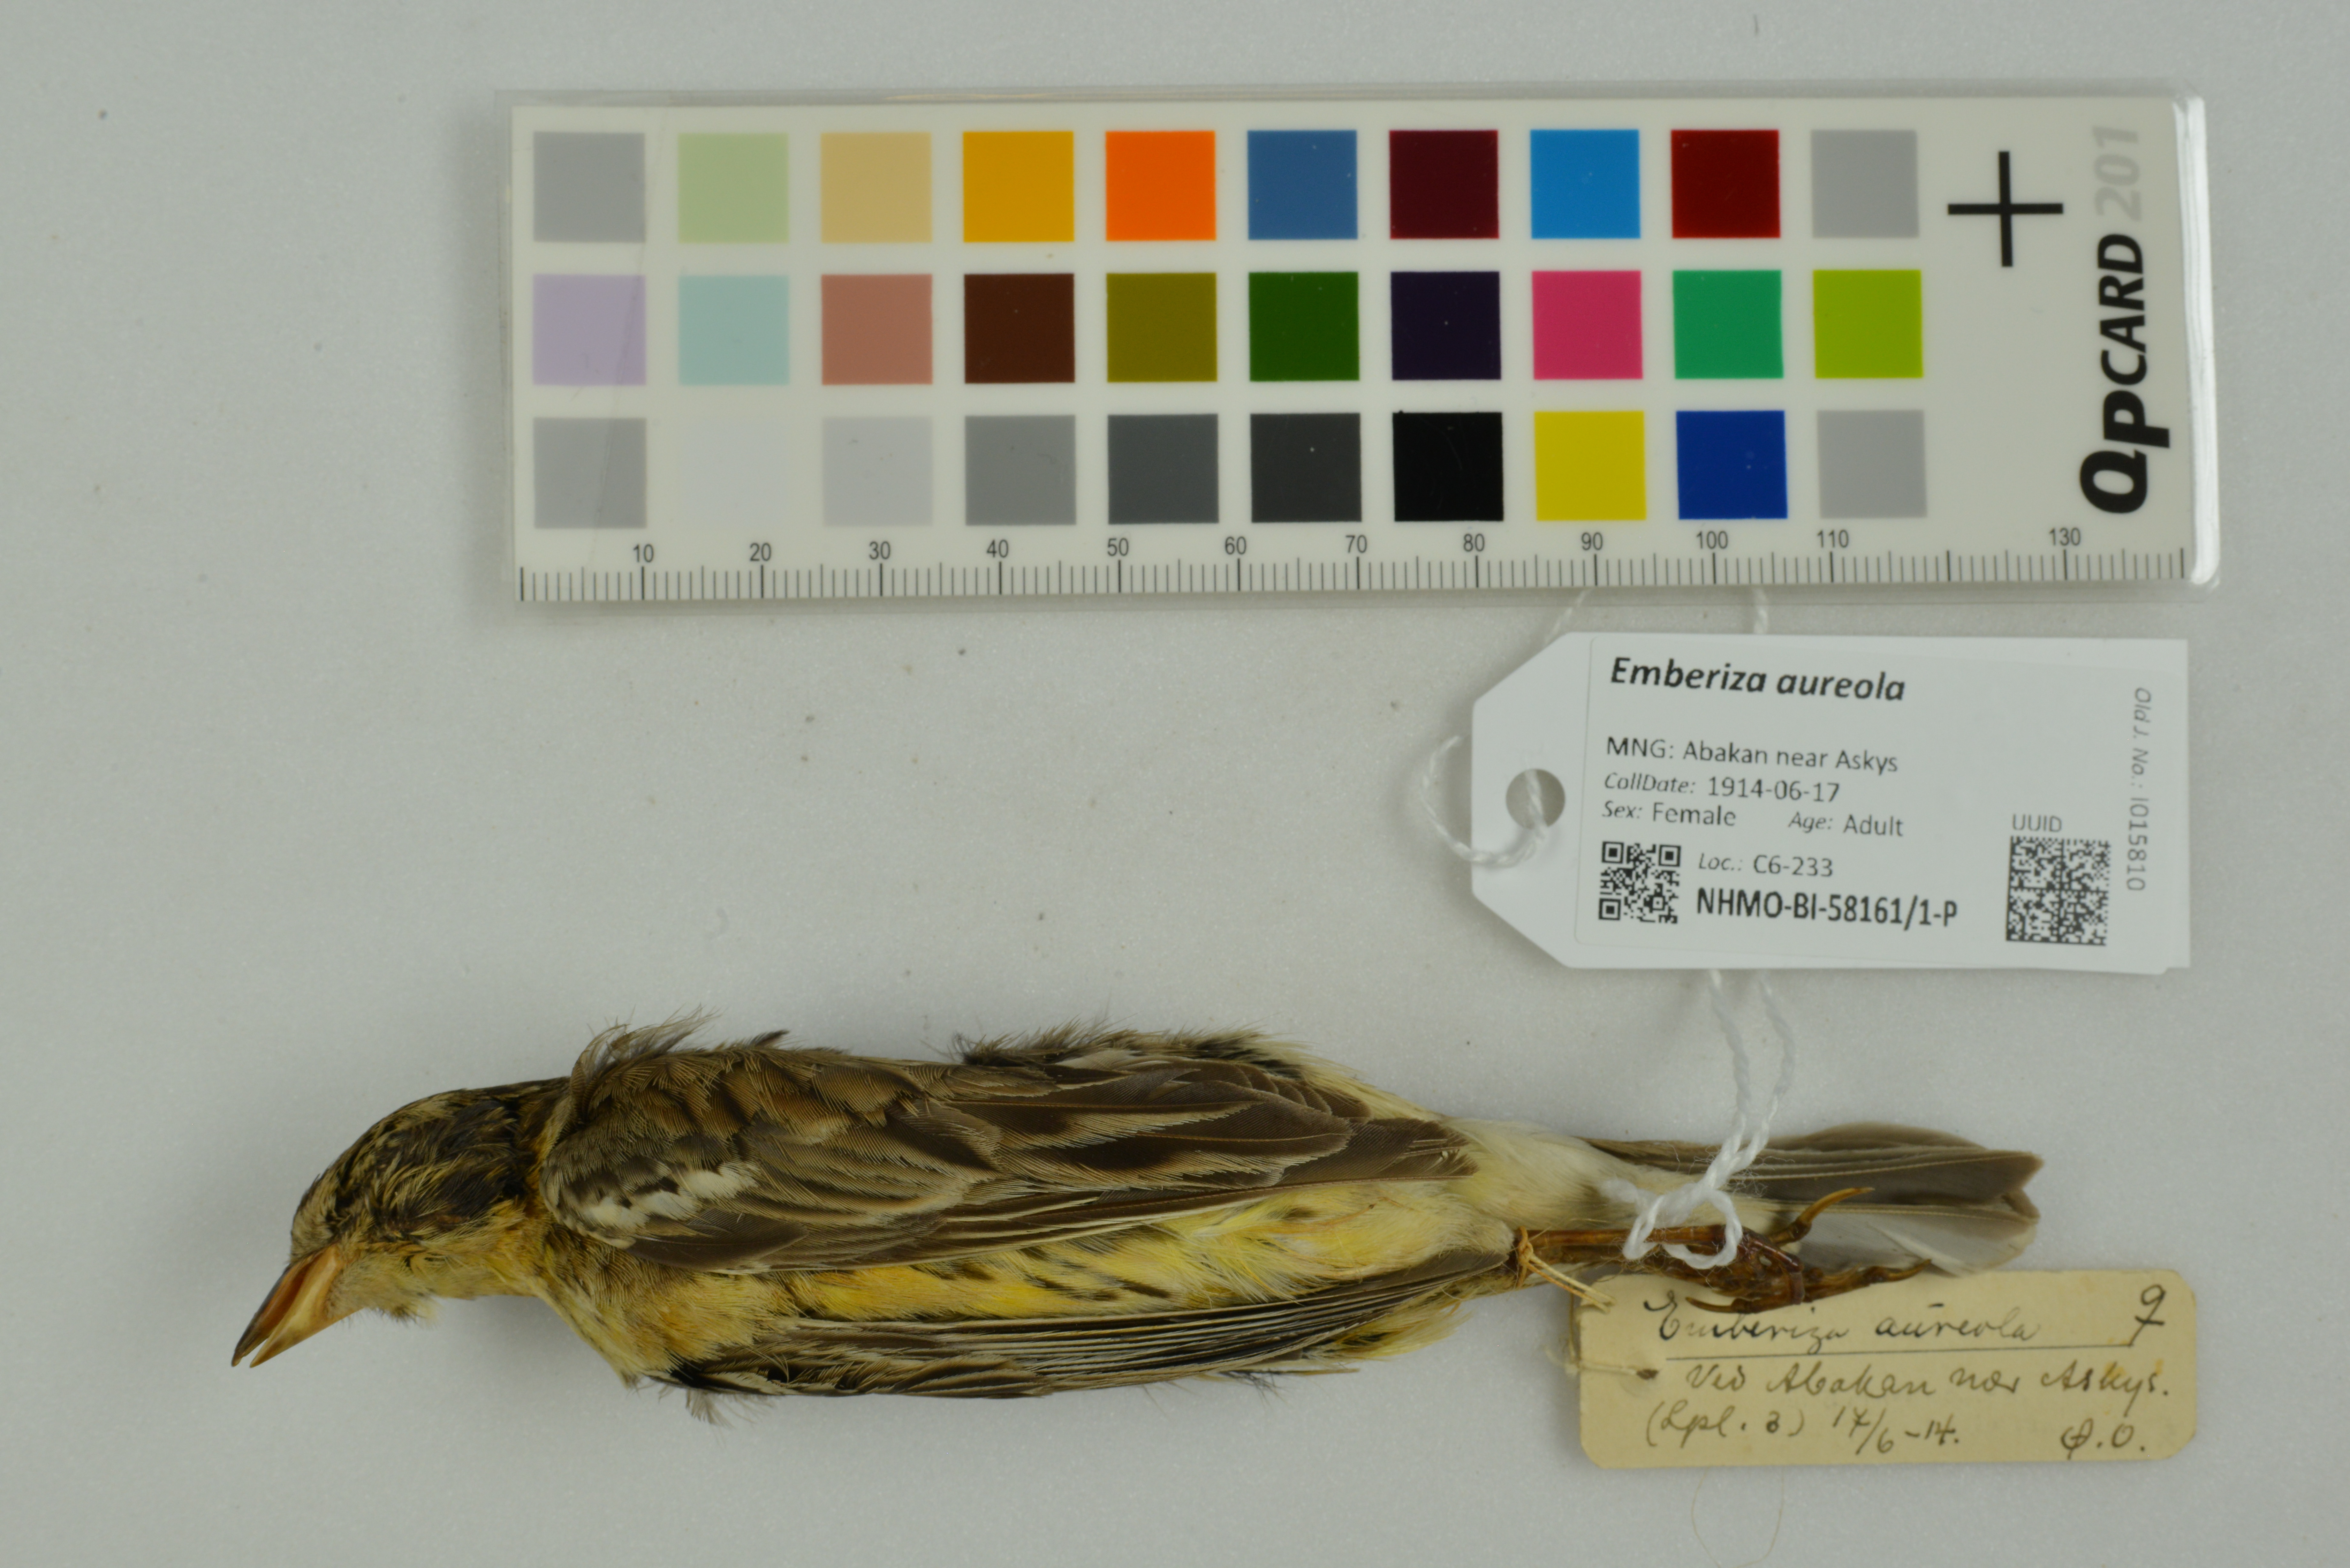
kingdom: Animalia
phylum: Chordata
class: Aves
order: Passeriformes
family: Emberizidae
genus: Emberiza
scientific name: Emberiza aureola
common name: Yellow-breasted bunting
